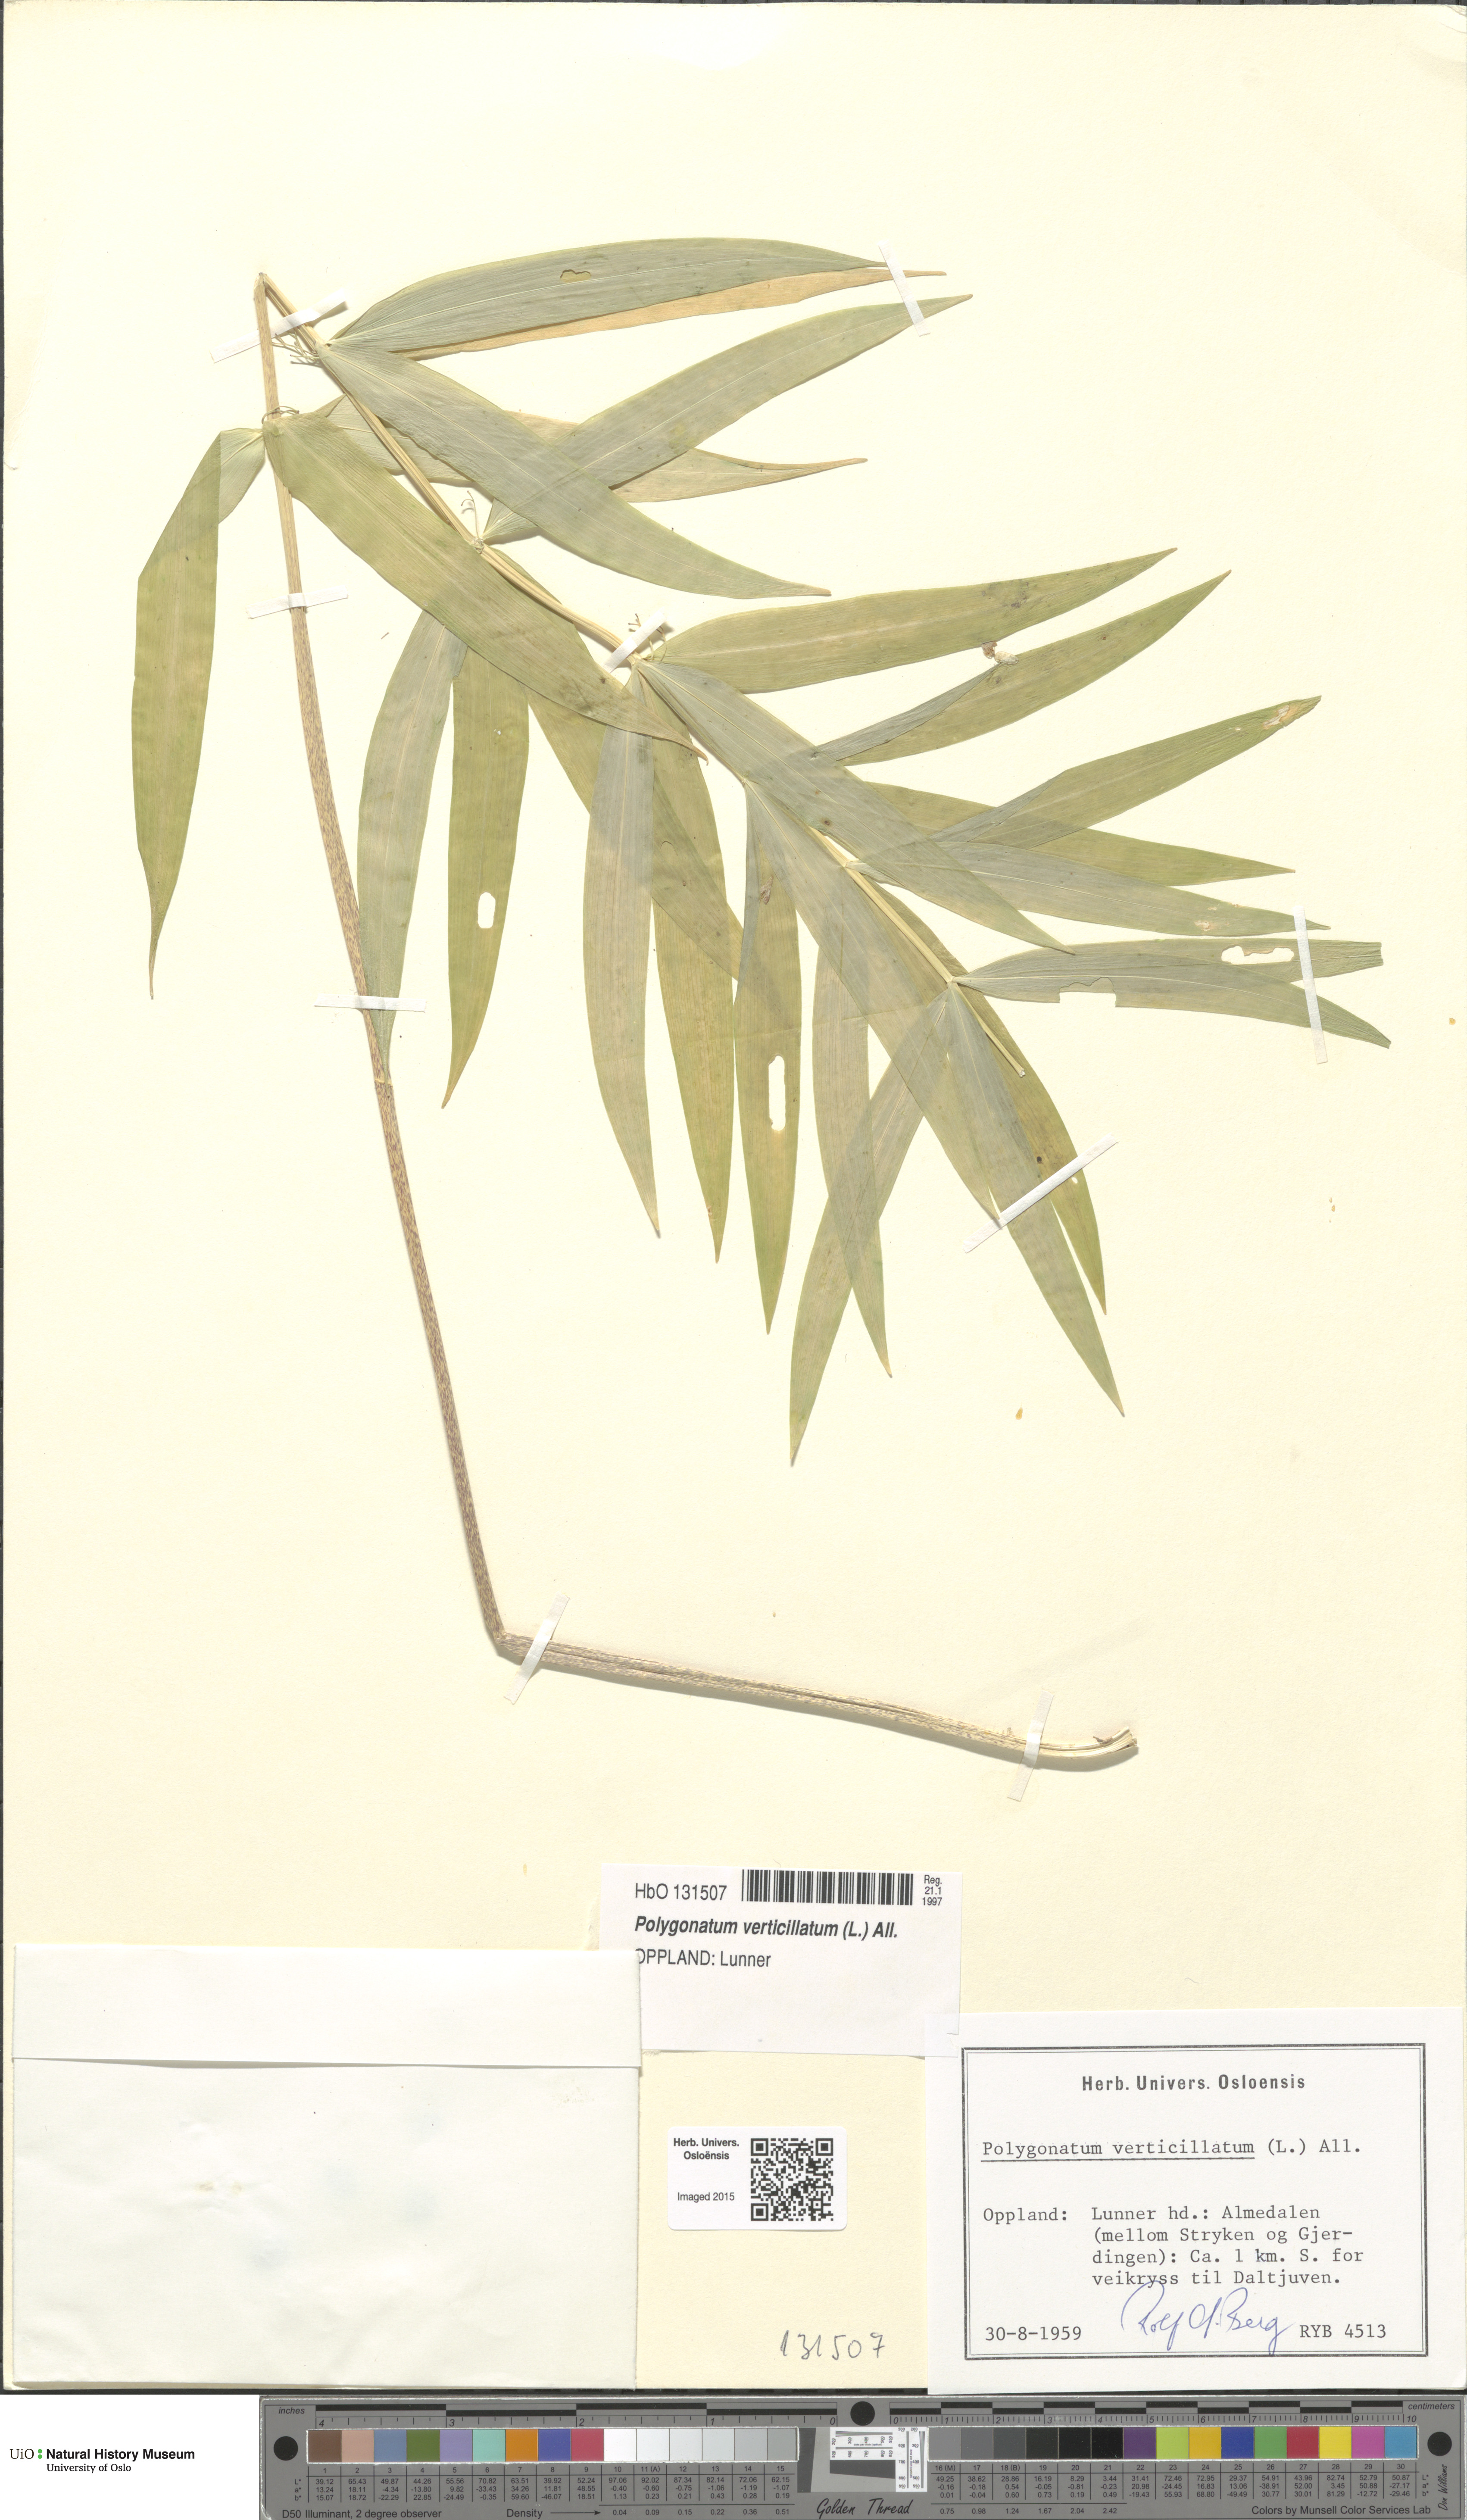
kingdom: Plantae
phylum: Tracheophyta
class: Liliopsida
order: Asparagales
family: Asparagaceae
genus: Polygonatum
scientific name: Polygonatum verticillatum
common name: Whorled solomon's-seal
